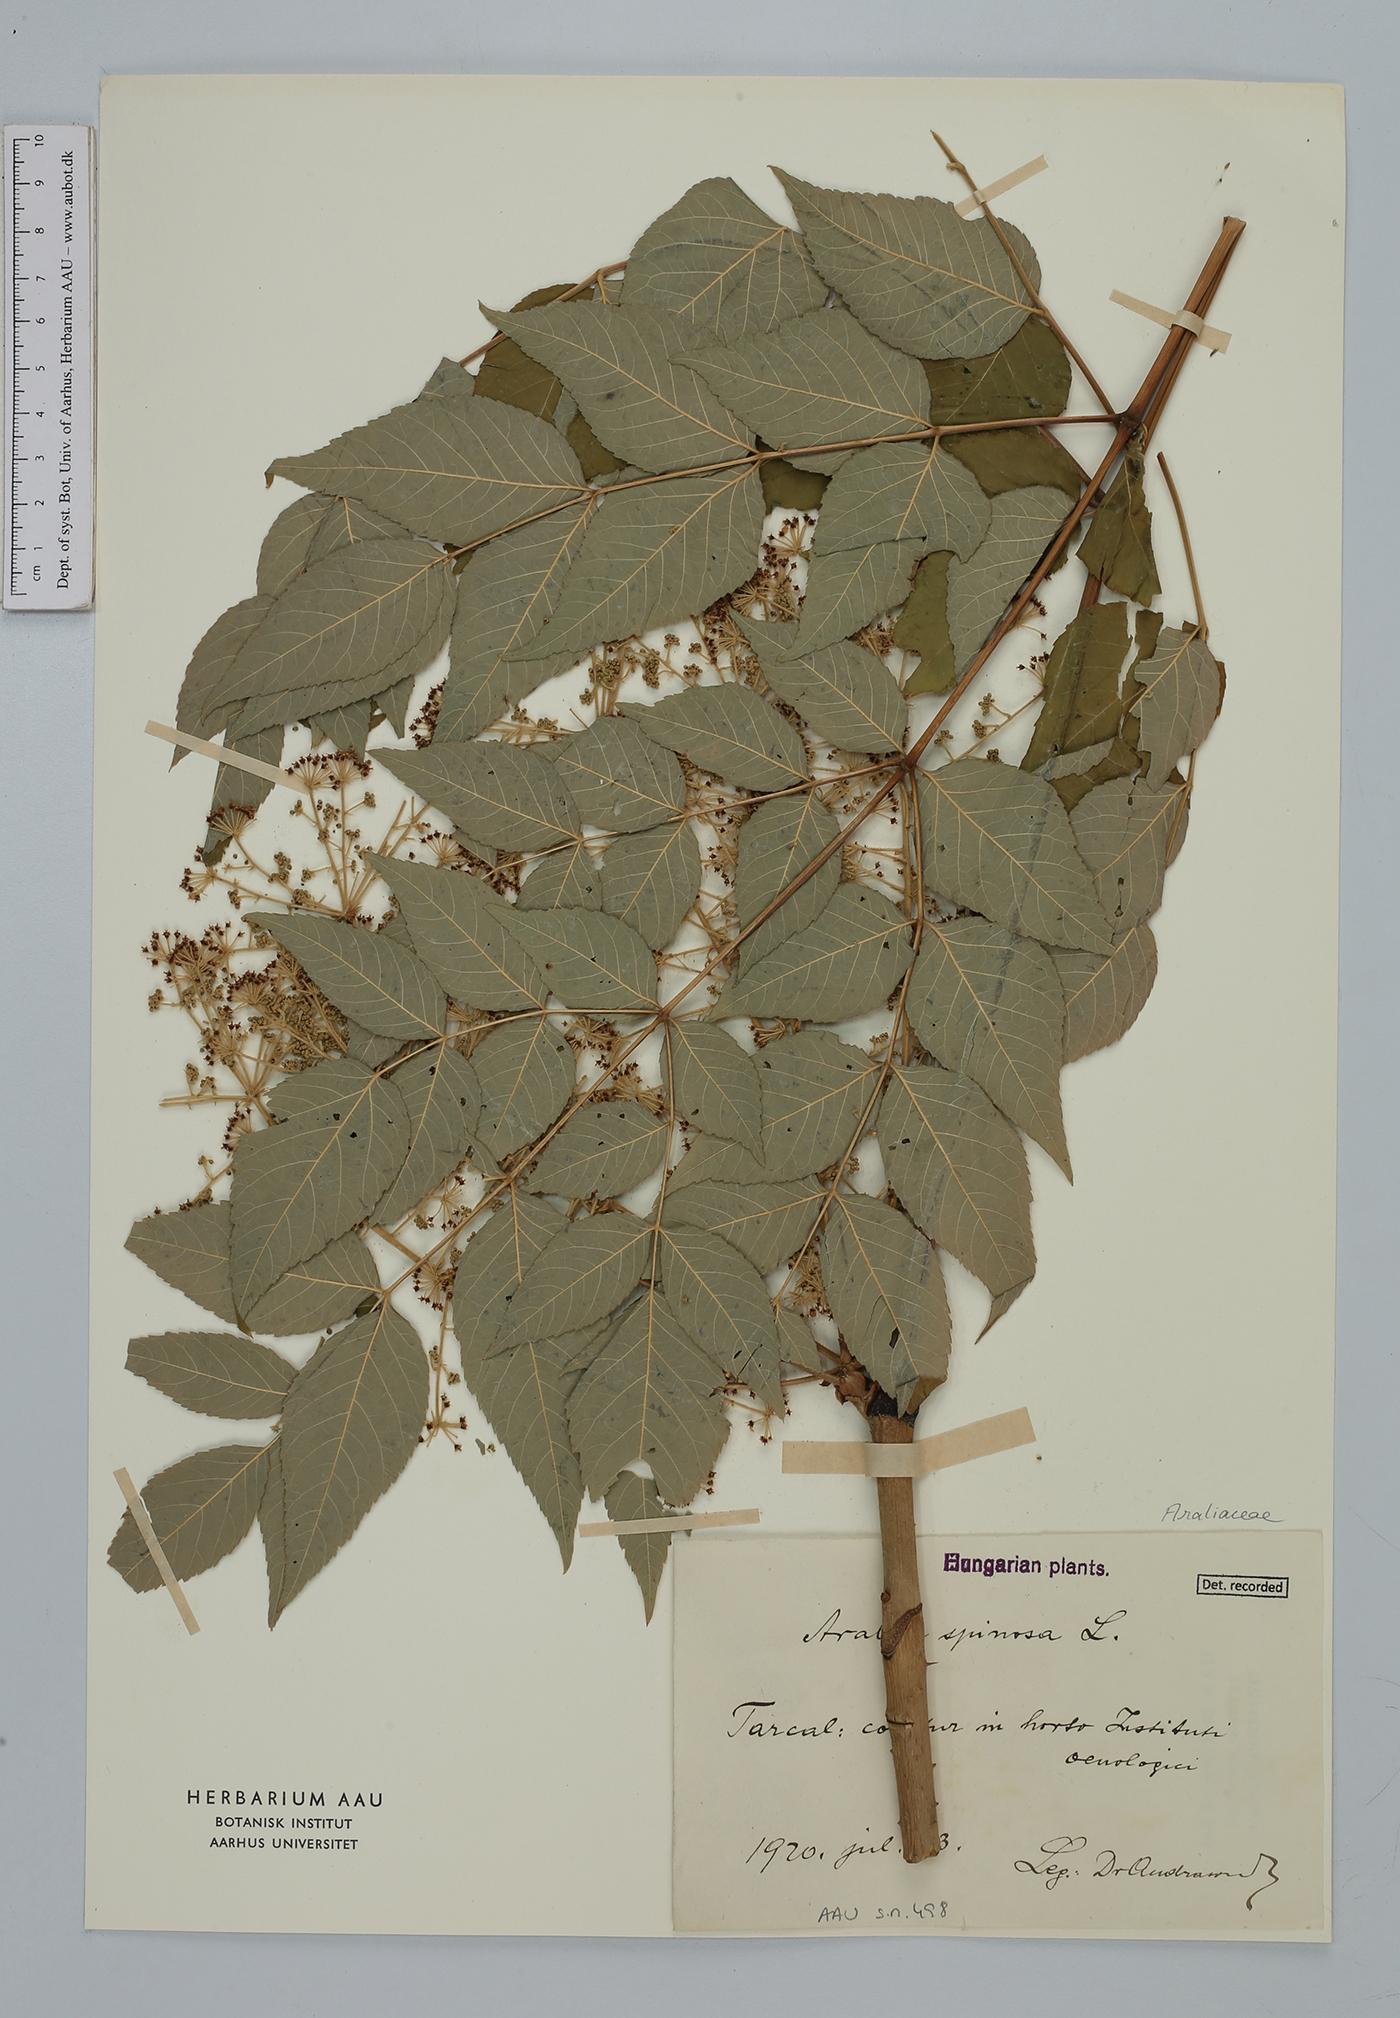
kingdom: Plantae
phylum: Tracheophyta
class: Magnoliopsida
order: Apiales
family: Araliaceae
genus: Aralia
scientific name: Aralia spinosa
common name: Hercules'-club
